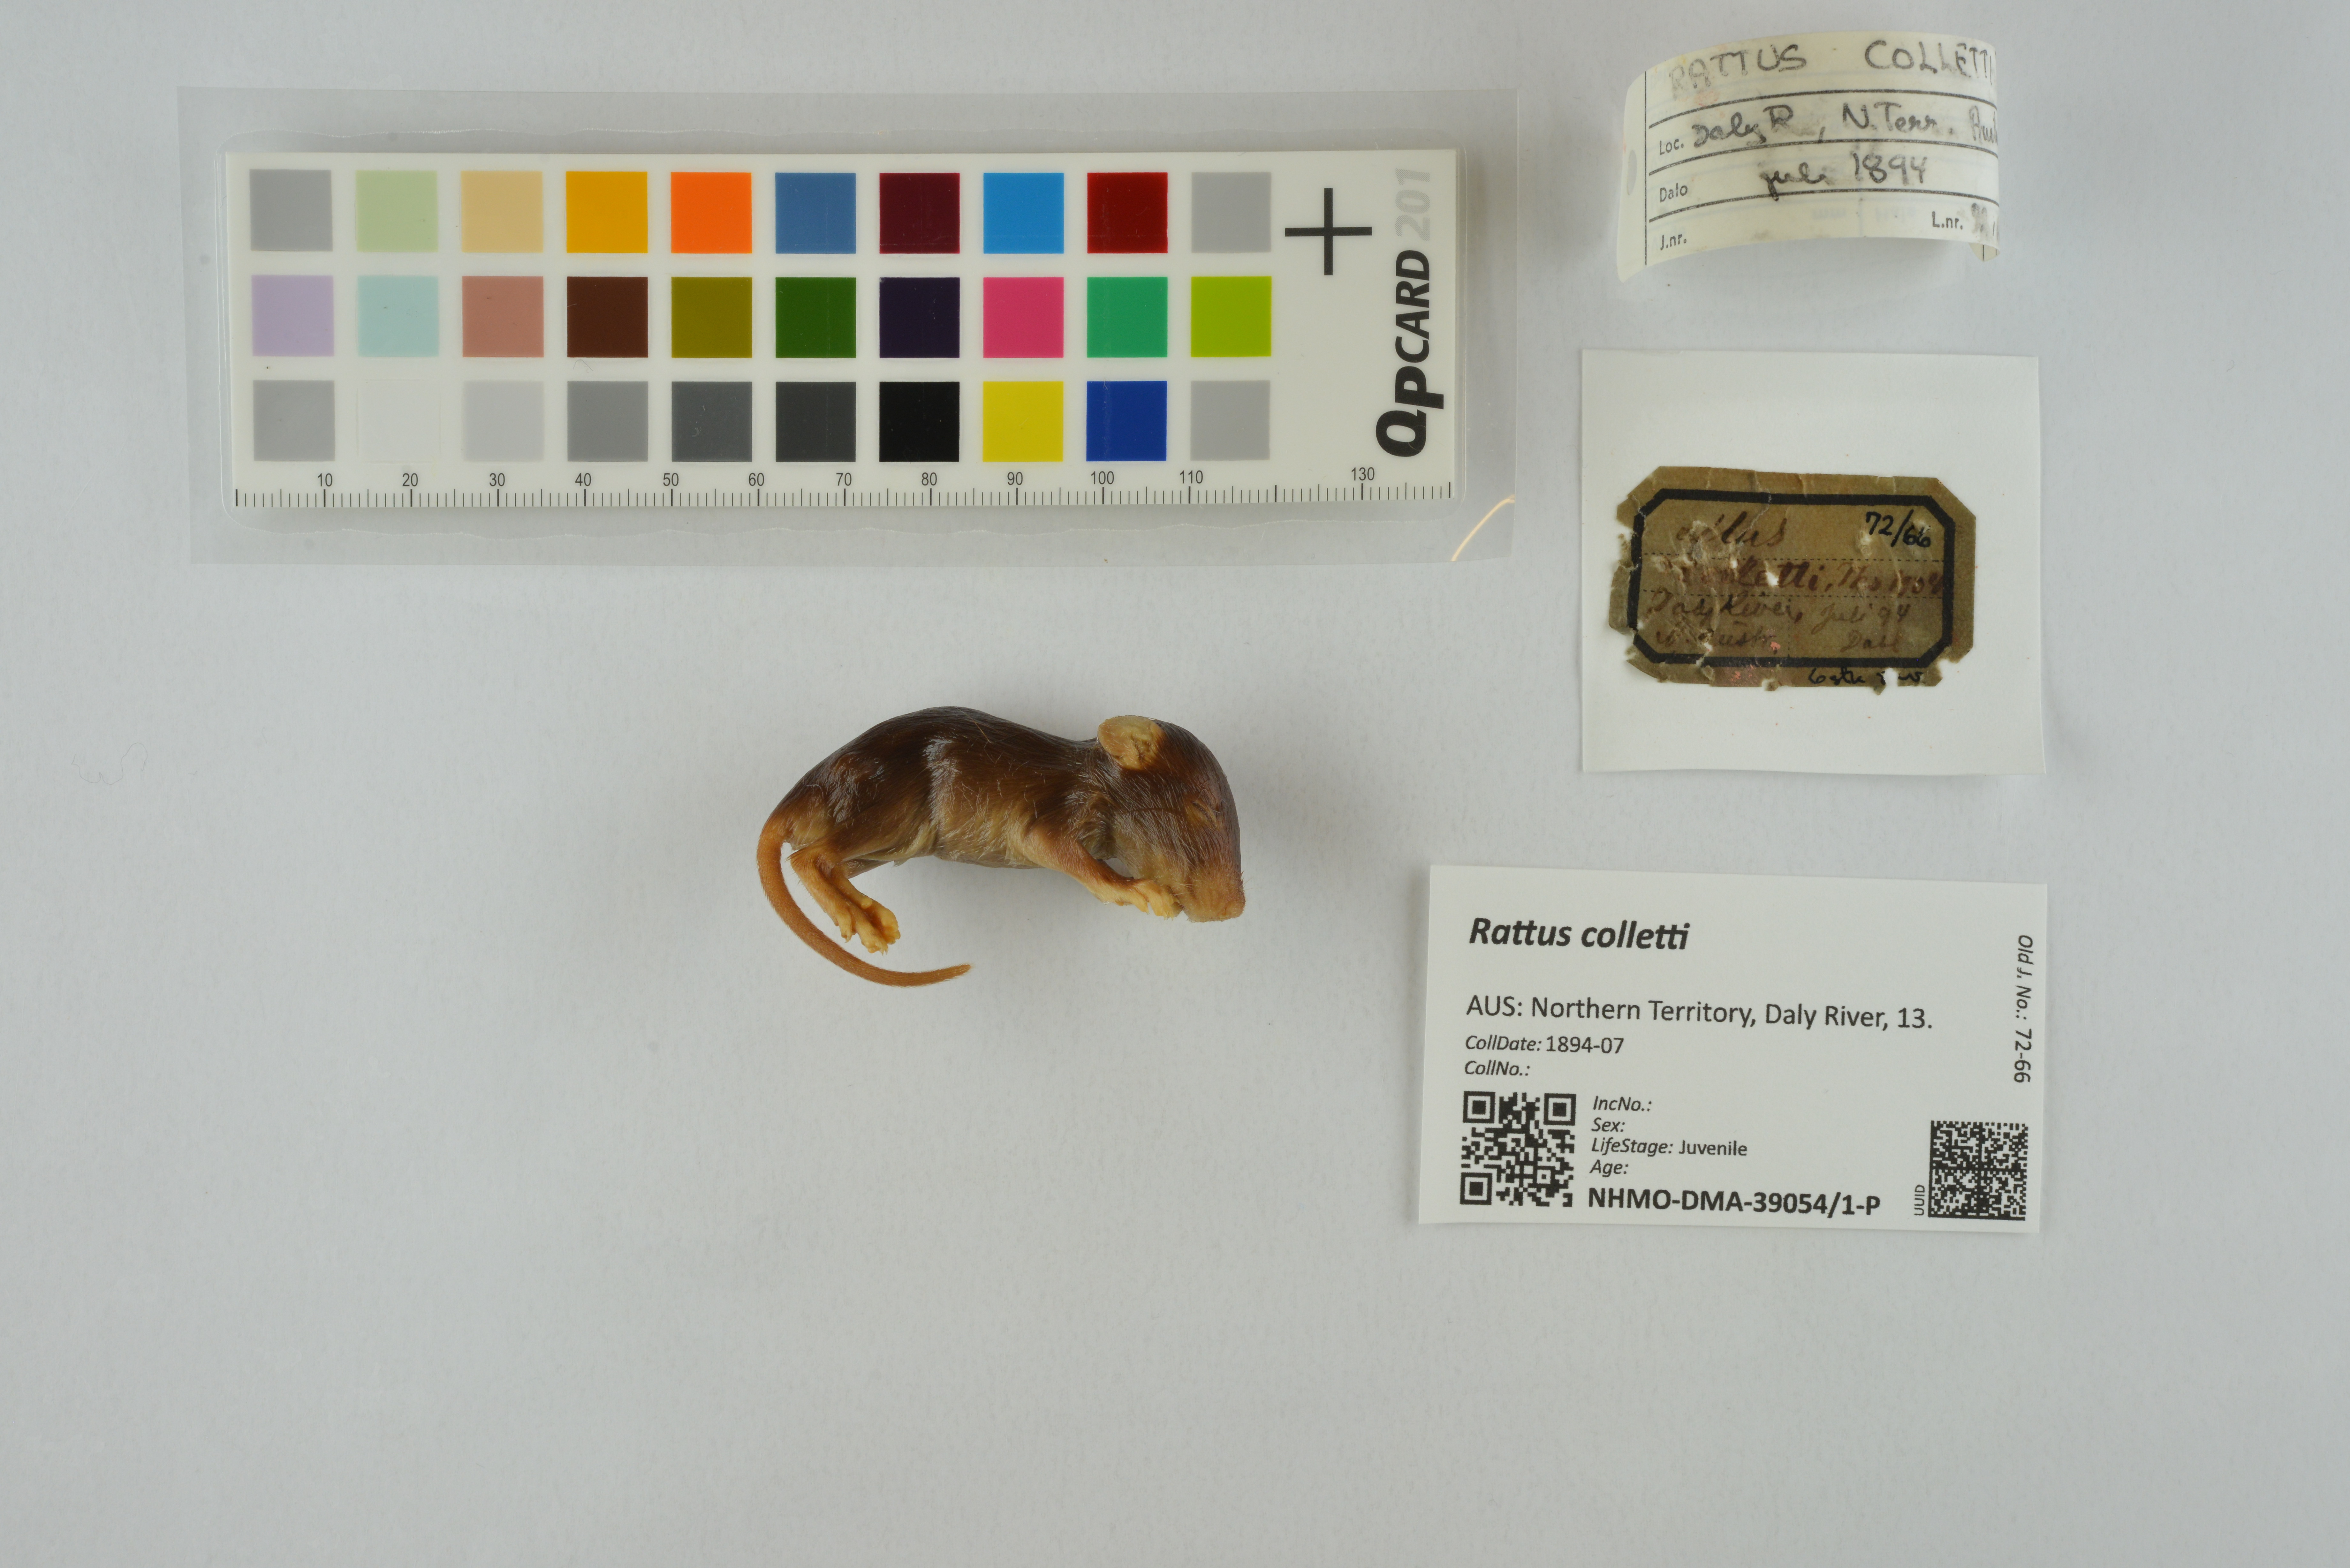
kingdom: Animalia
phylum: Chordata
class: Mammalia
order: Rodentia
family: Muridae
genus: Rattus
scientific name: Rattus colletti
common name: Australian dusky rat
